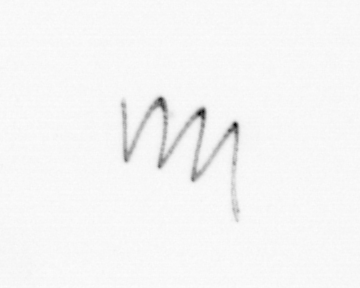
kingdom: Chromista
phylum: Ochrophyta
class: Bacillariophyceae
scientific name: Bacillariophyceae
